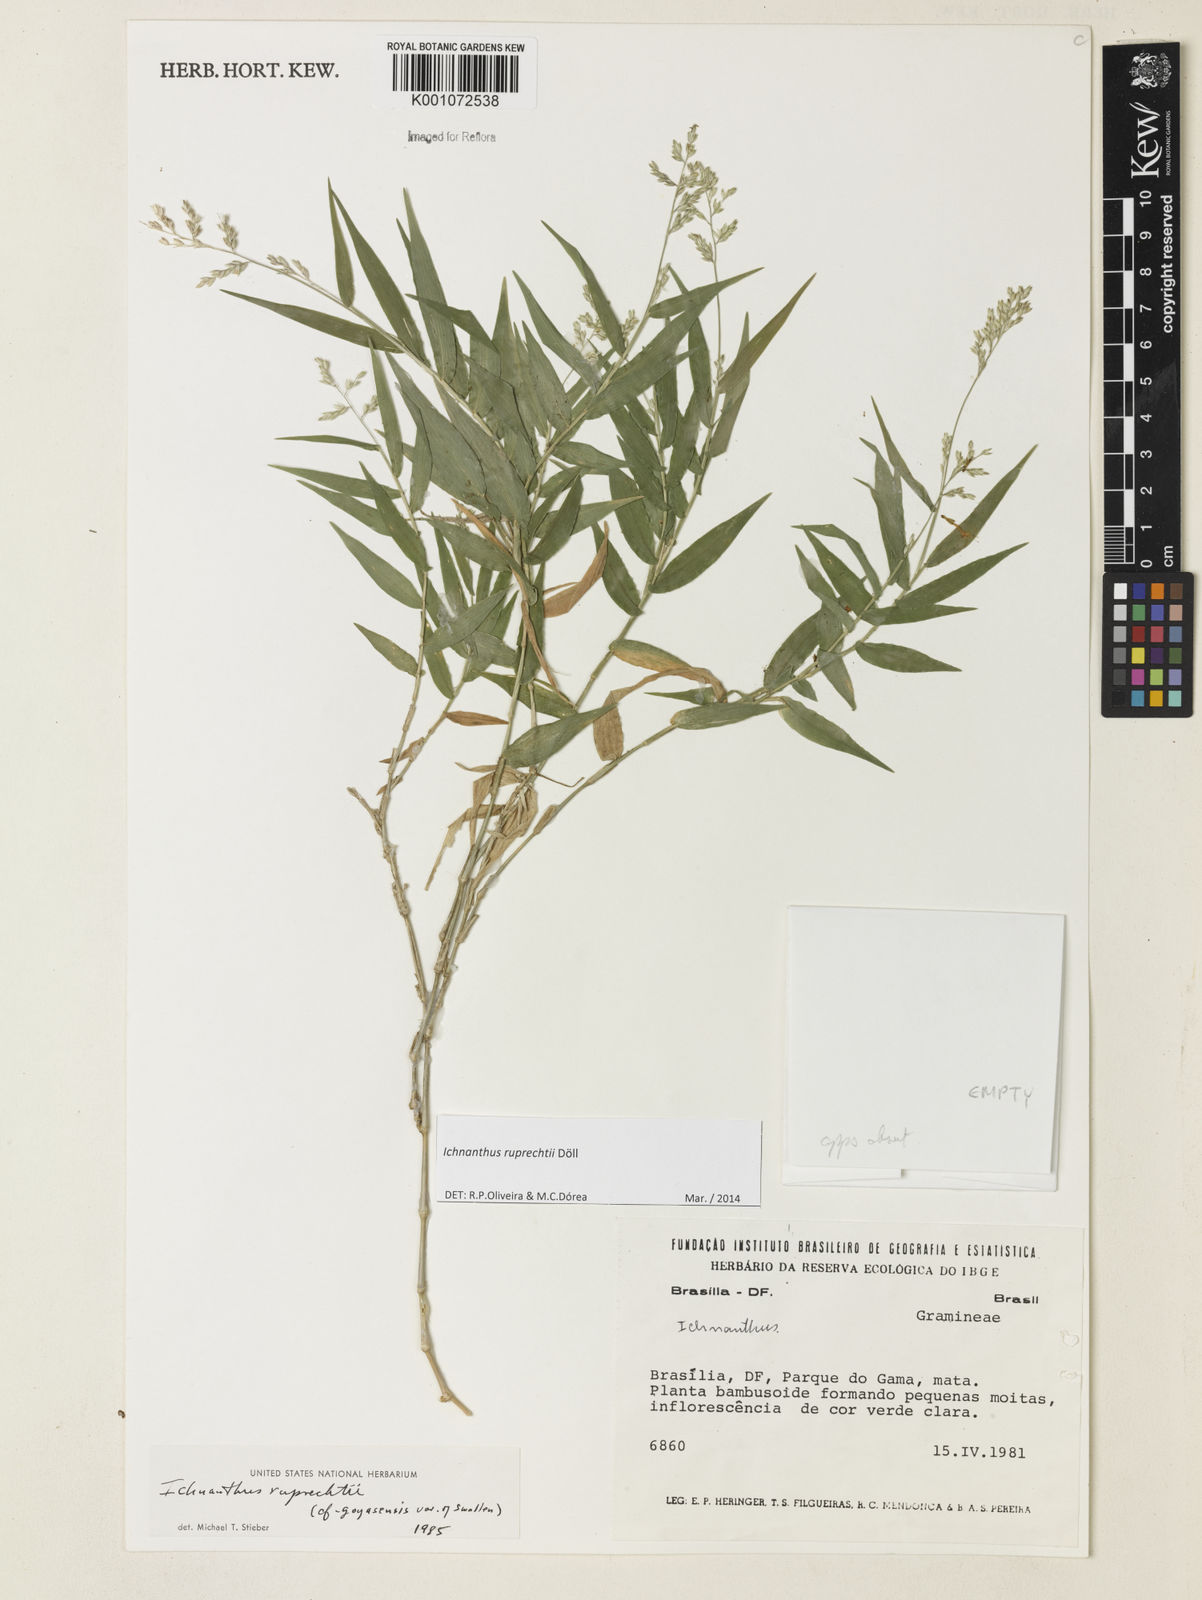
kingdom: Plantae
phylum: Tracheophyta
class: Liliopsida
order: Poales
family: Poaceae
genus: Ichnanthus
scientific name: Ichnanthus
